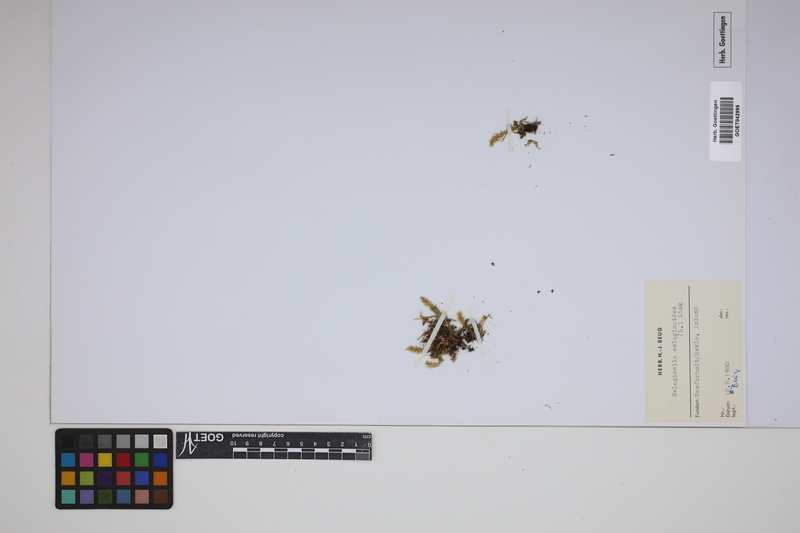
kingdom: Plantae
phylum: Tracheophyta
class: Lycopodiopsida
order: Selaginellales
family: Selaginellaceae
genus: Selaginella
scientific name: Selaginella selaginoides
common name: Prickly mountain-moss
